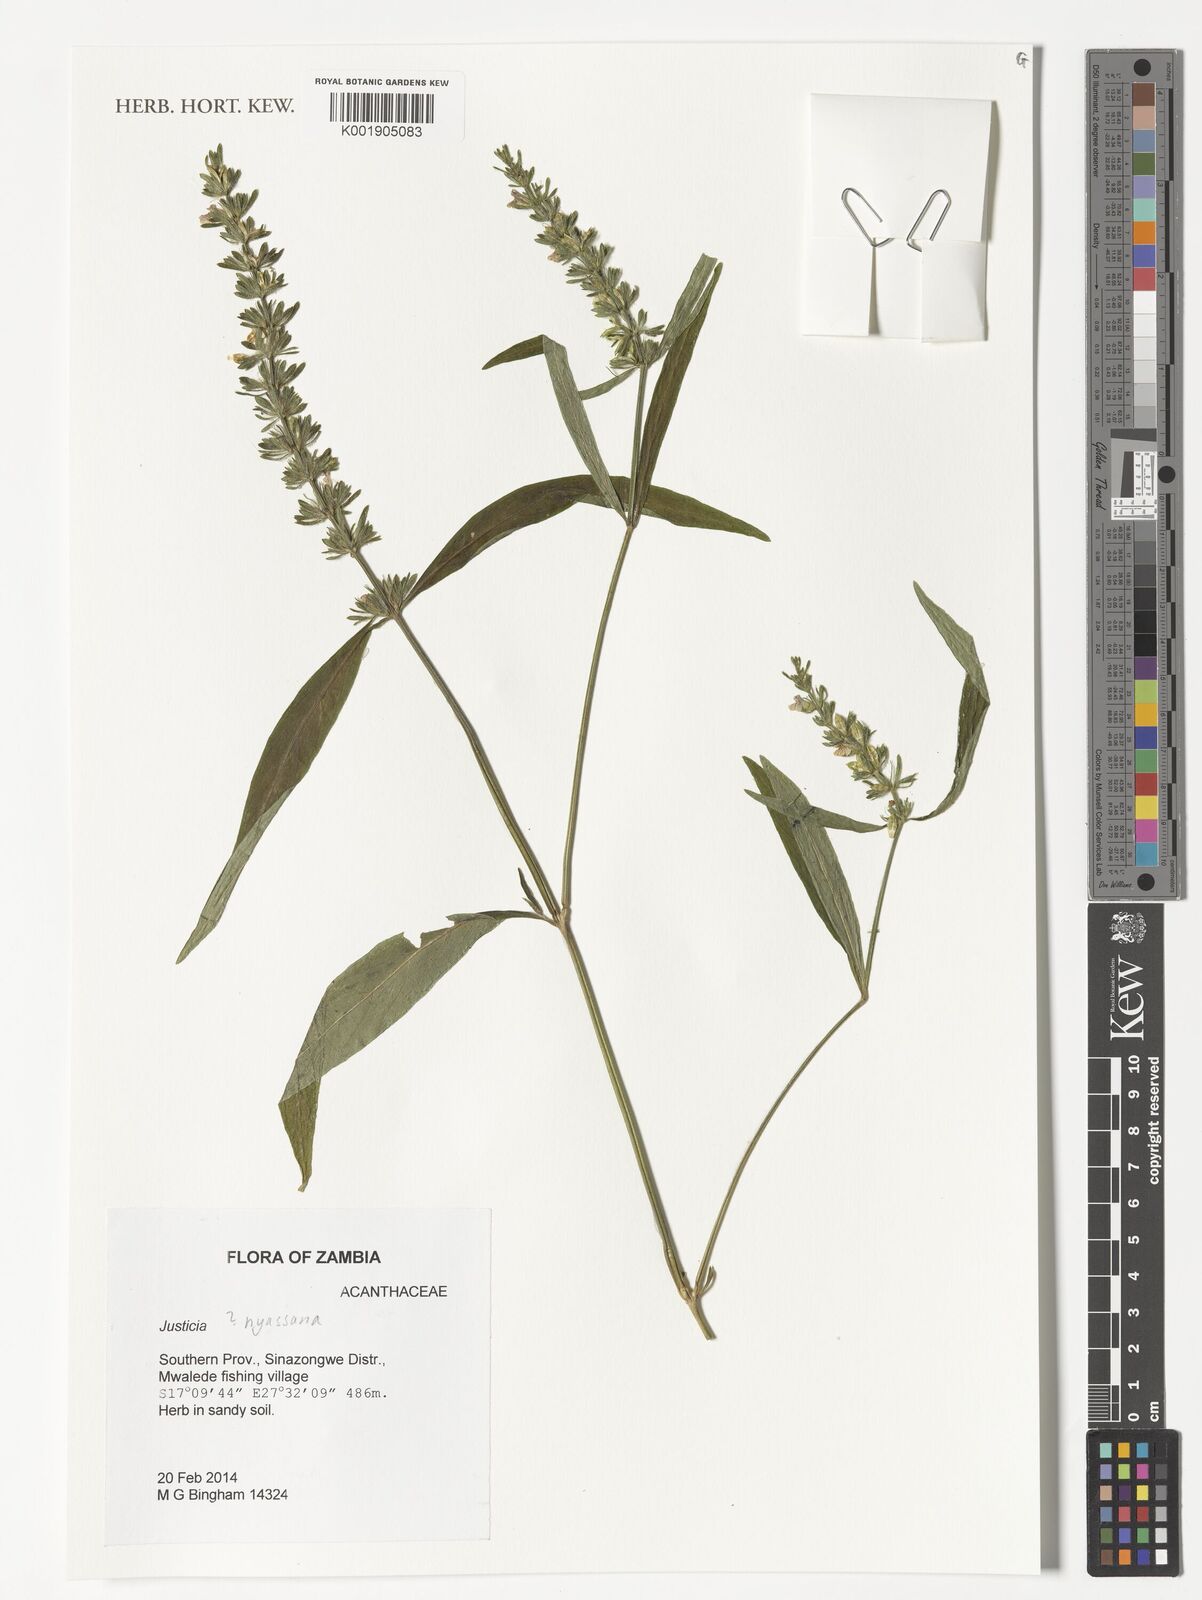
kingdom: Plantae
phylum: Tracheophyta
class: Magnoliopsida
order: Lamiales
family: Acanthaceae
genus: Justicia
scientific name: Justicia nyassana
